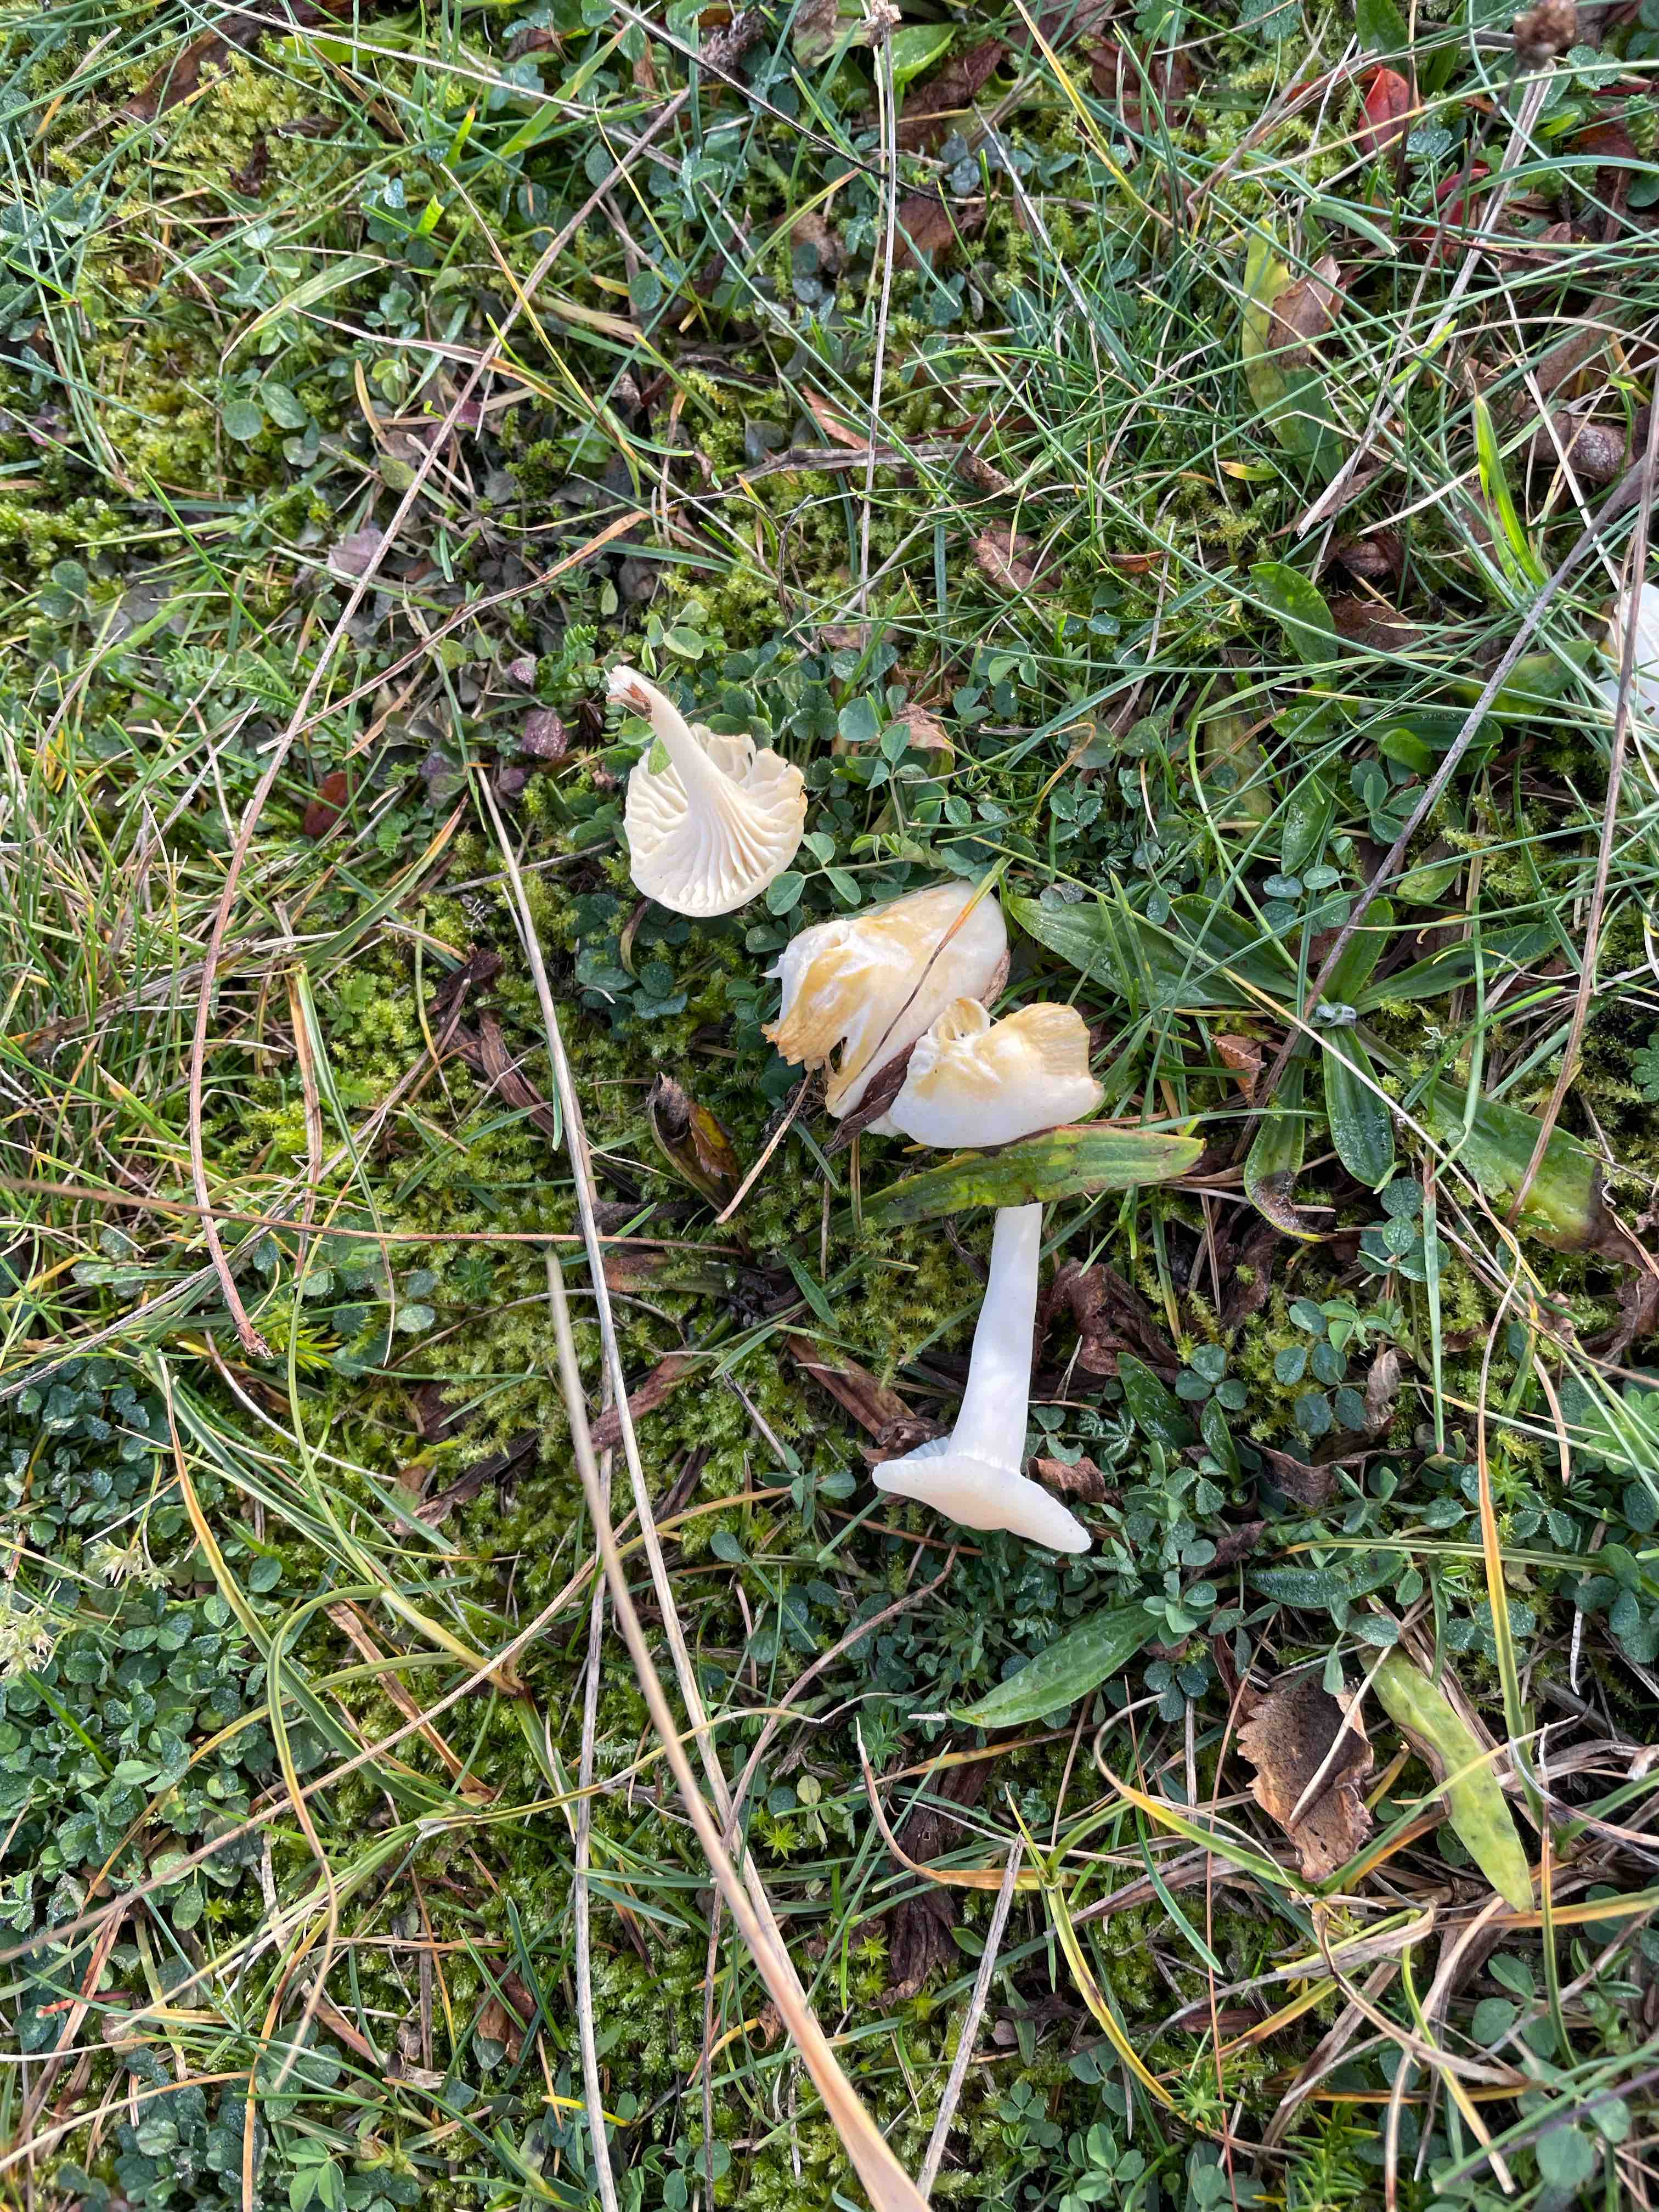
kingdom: Fungi
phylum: Basidiomycota
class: Agaricomycetes
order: Agaricales
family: Hygrophoraceae
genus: Cuphophyllus
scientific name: Cuphophyllus virgineus
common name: snehvid vokshat
